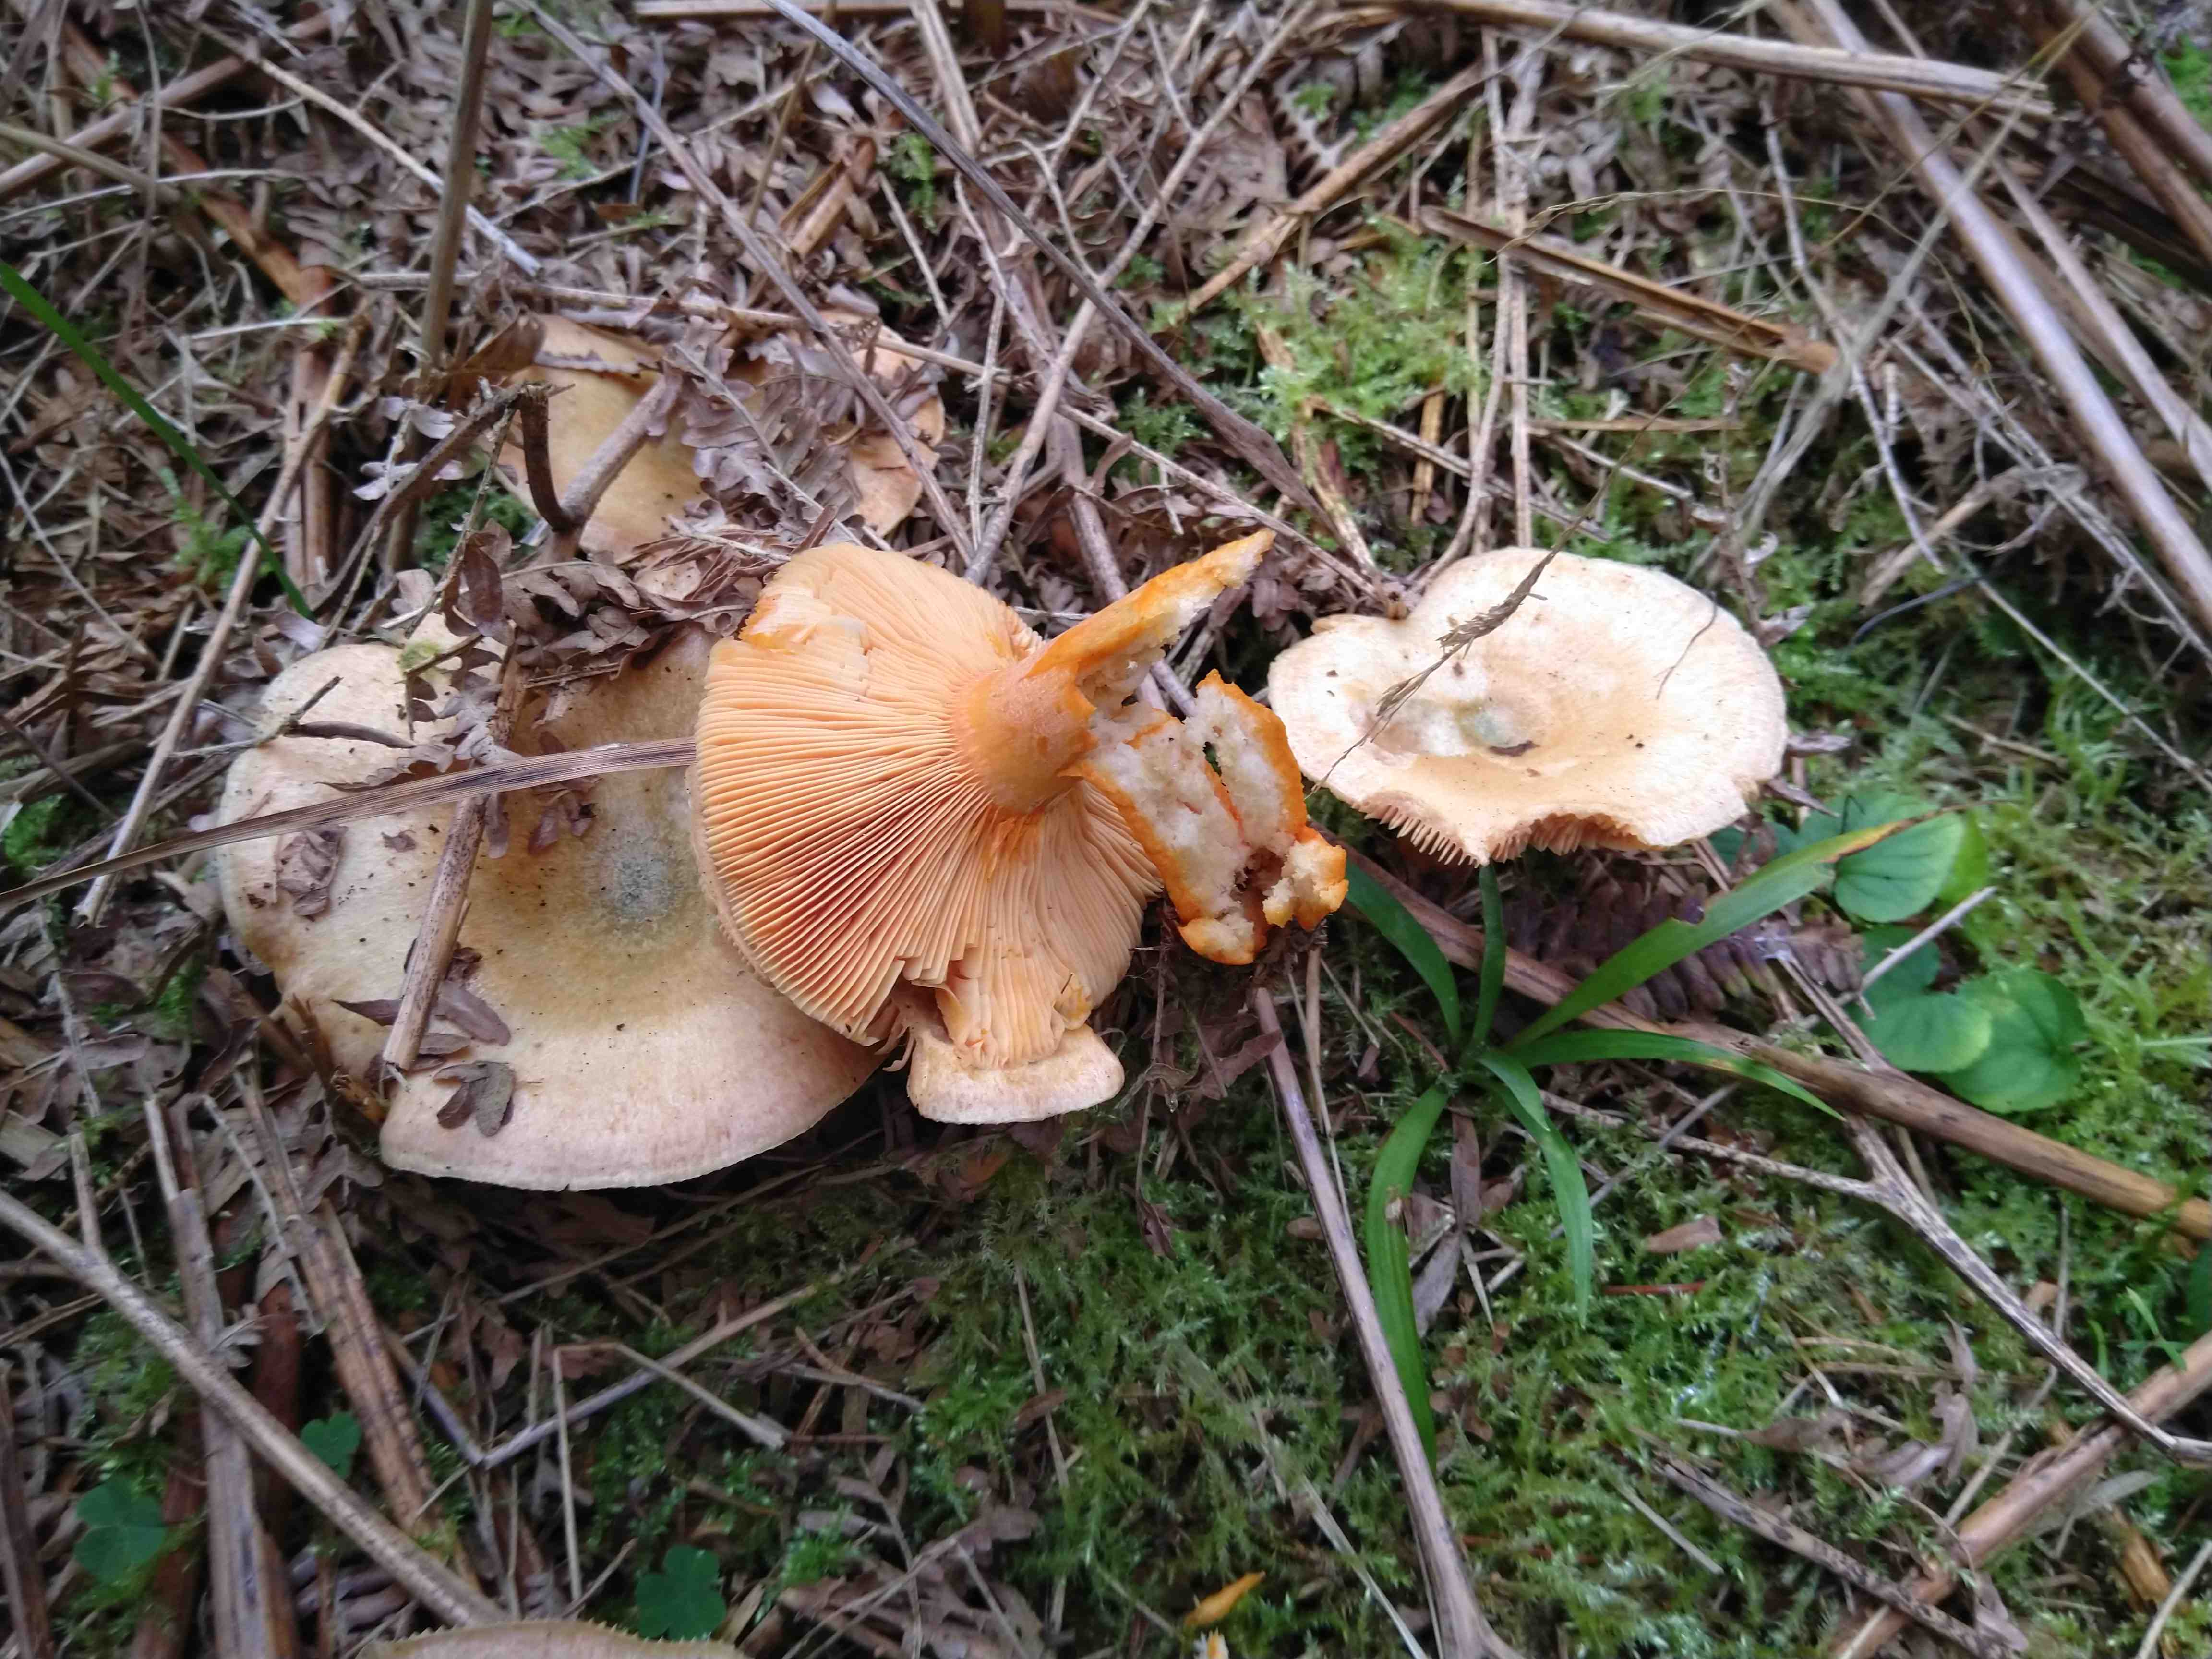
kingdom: Fungi
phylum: Basidiomycota
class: Agaricomycetes
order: Russulales
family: Russulaceae
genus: Lactarius
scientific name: Lactarius deterrimus
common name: gran-mælkehat
